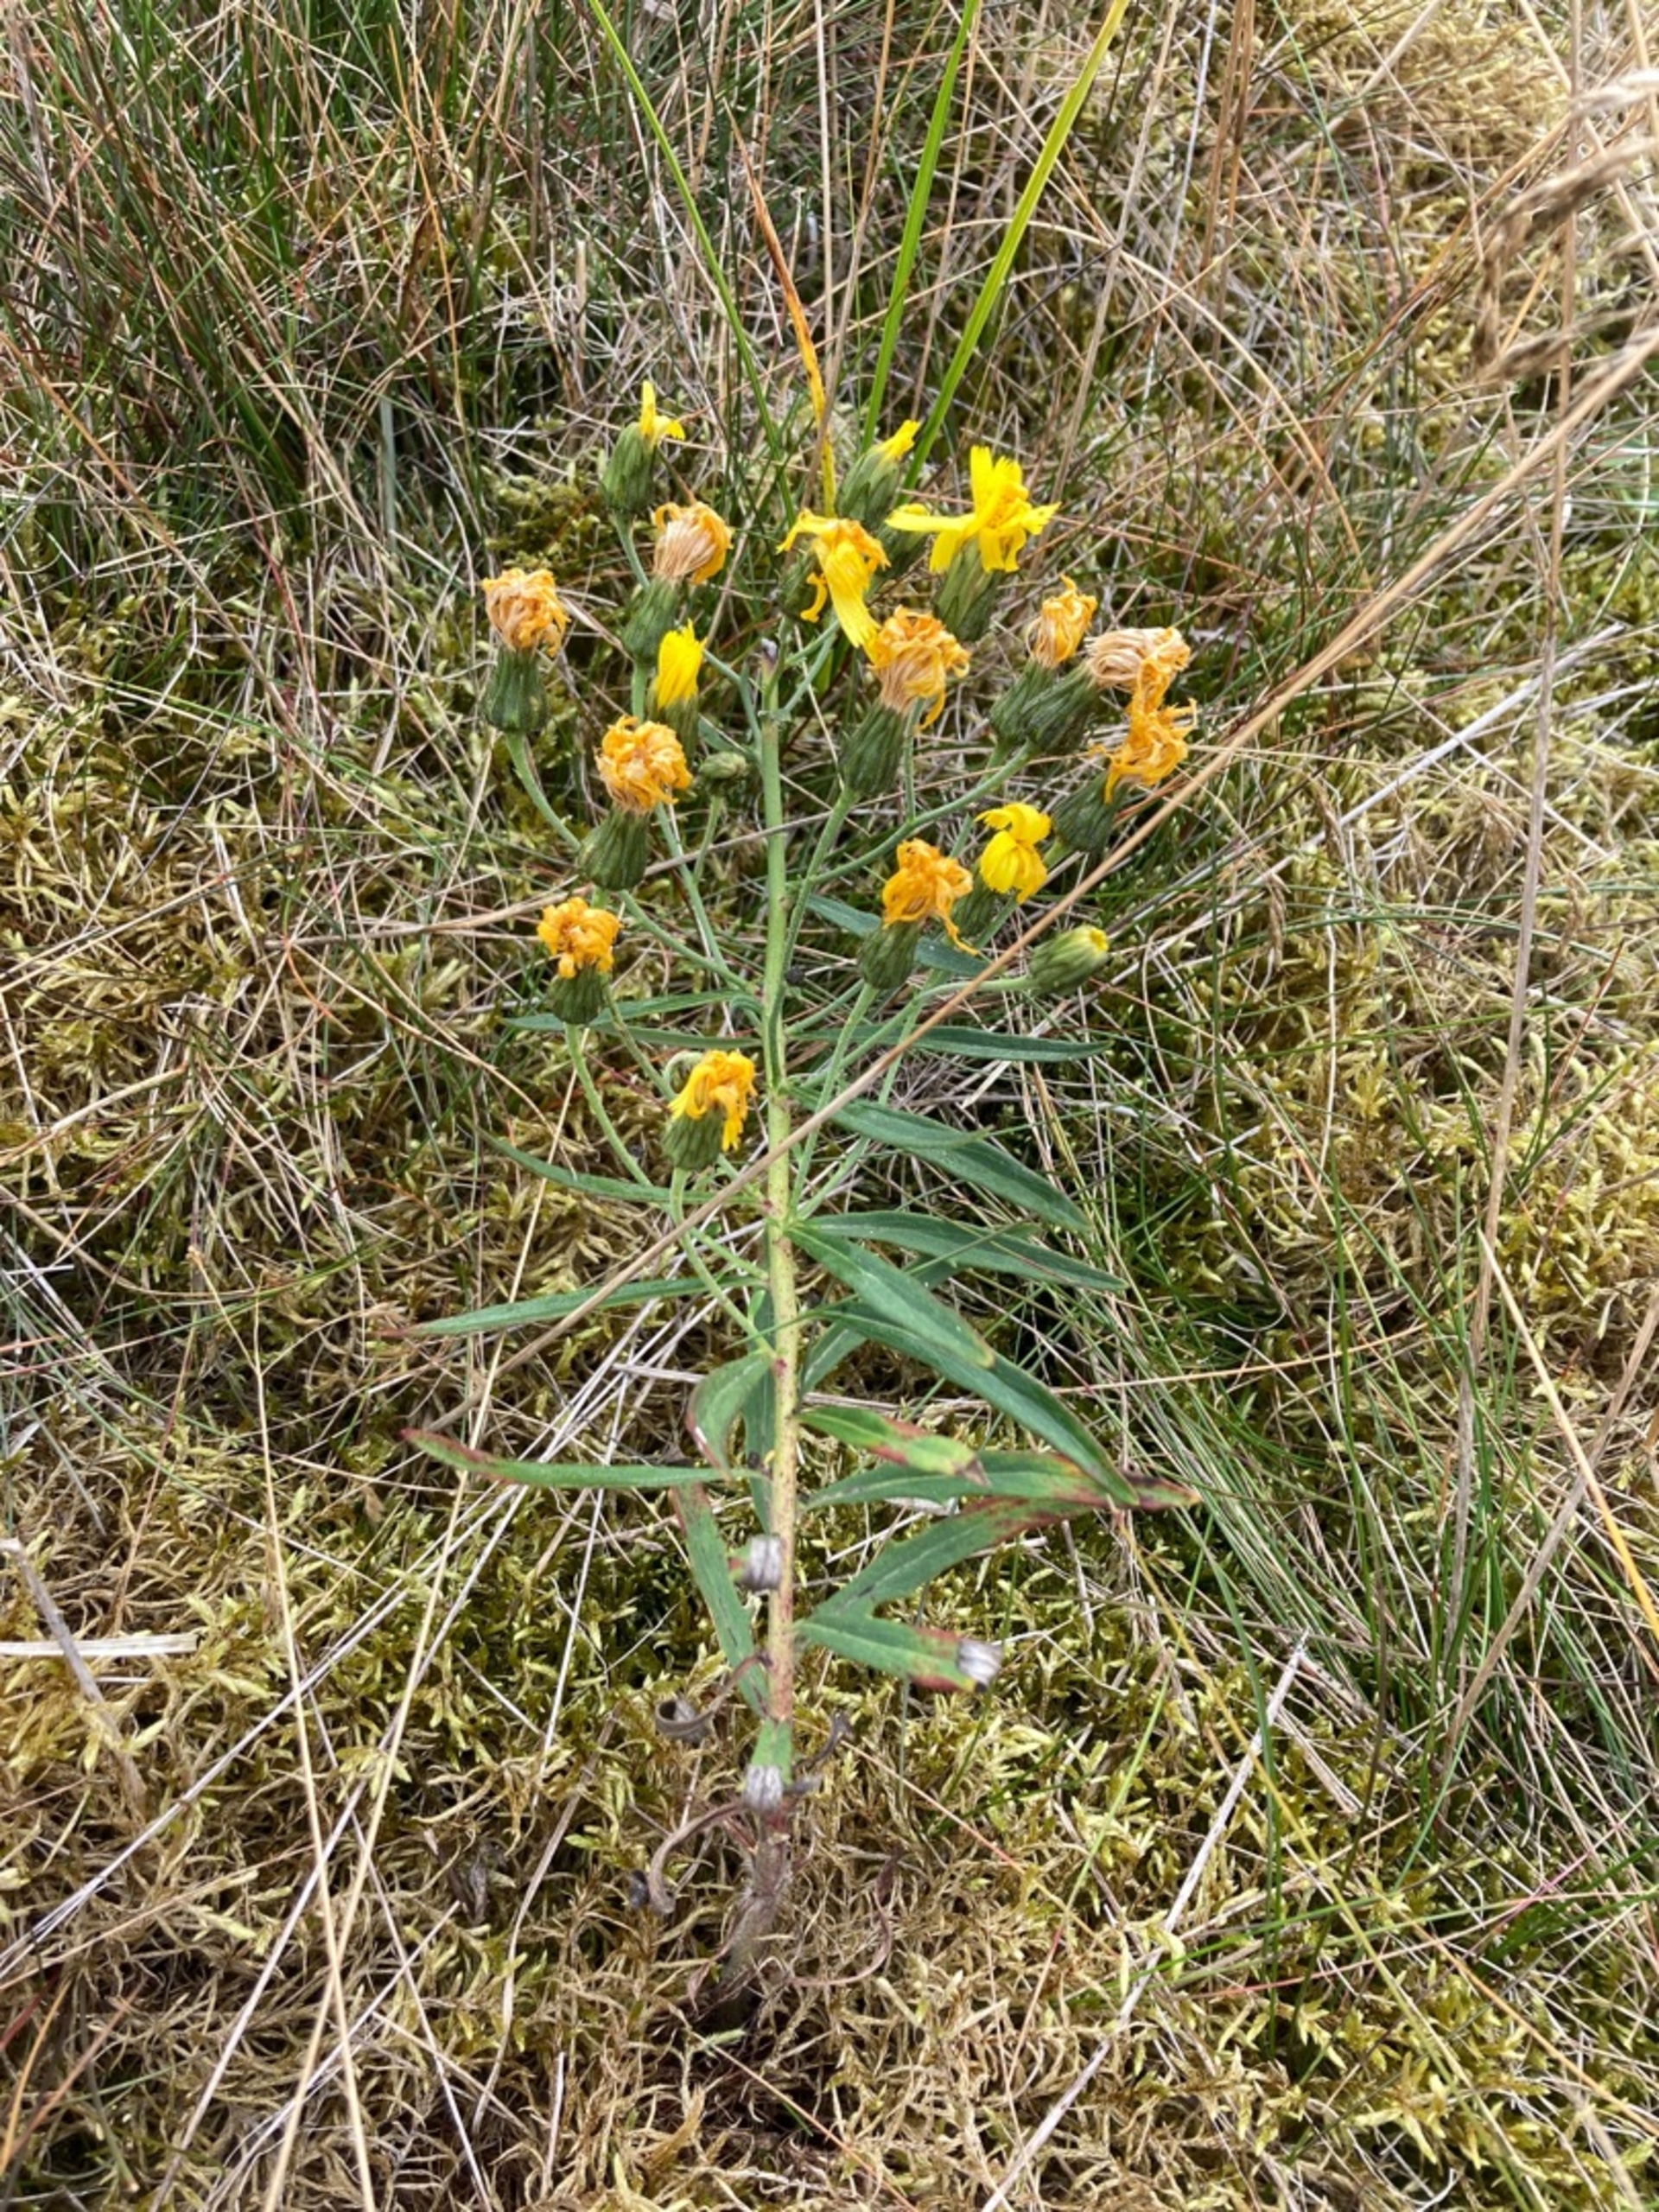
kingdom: Plantae
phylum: Tracheophyta
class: Magnoliopsida
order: Asterales
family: Asteraceae
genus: Hieracium
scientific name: Hieracium umbellatum
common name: Smalbladet høgeurt
